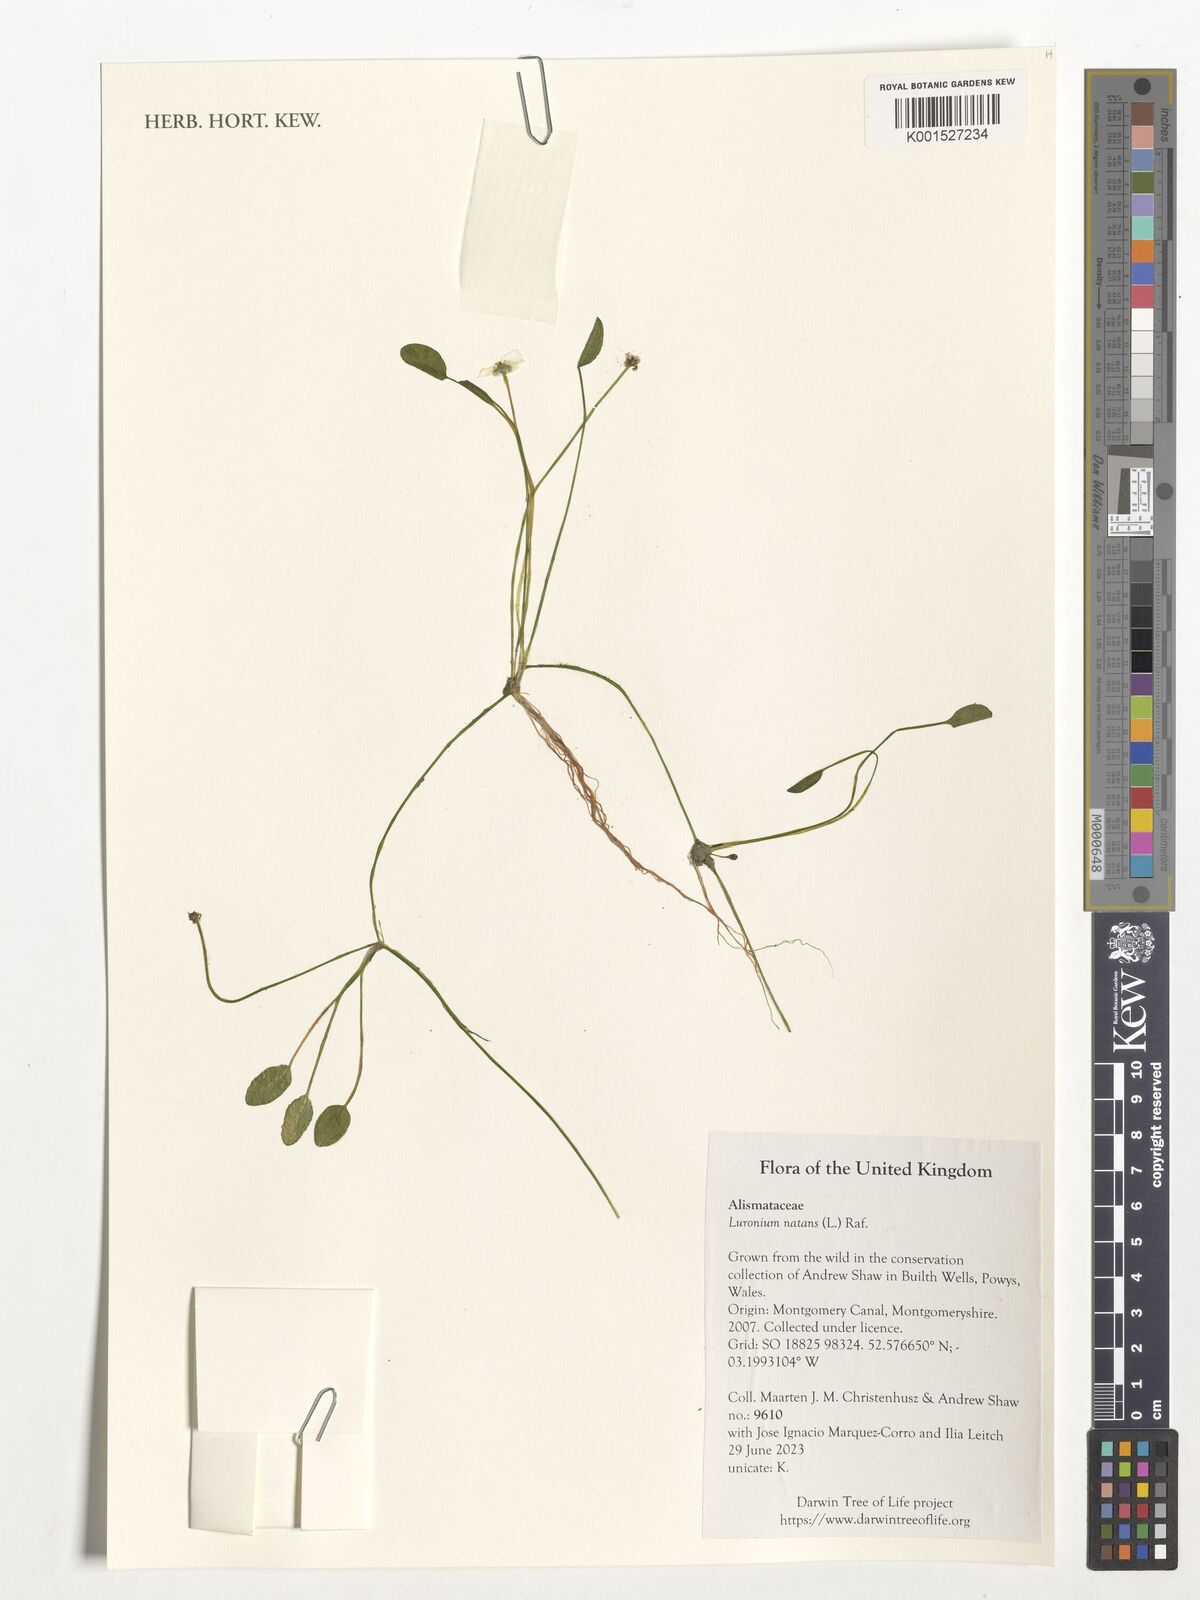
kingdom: Plantae
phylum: Tracheophyta
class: Liliopsida
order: Alismatales
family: Alismataceae
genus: Luronium
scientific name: Luronium natans
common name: Floating water-plantain
